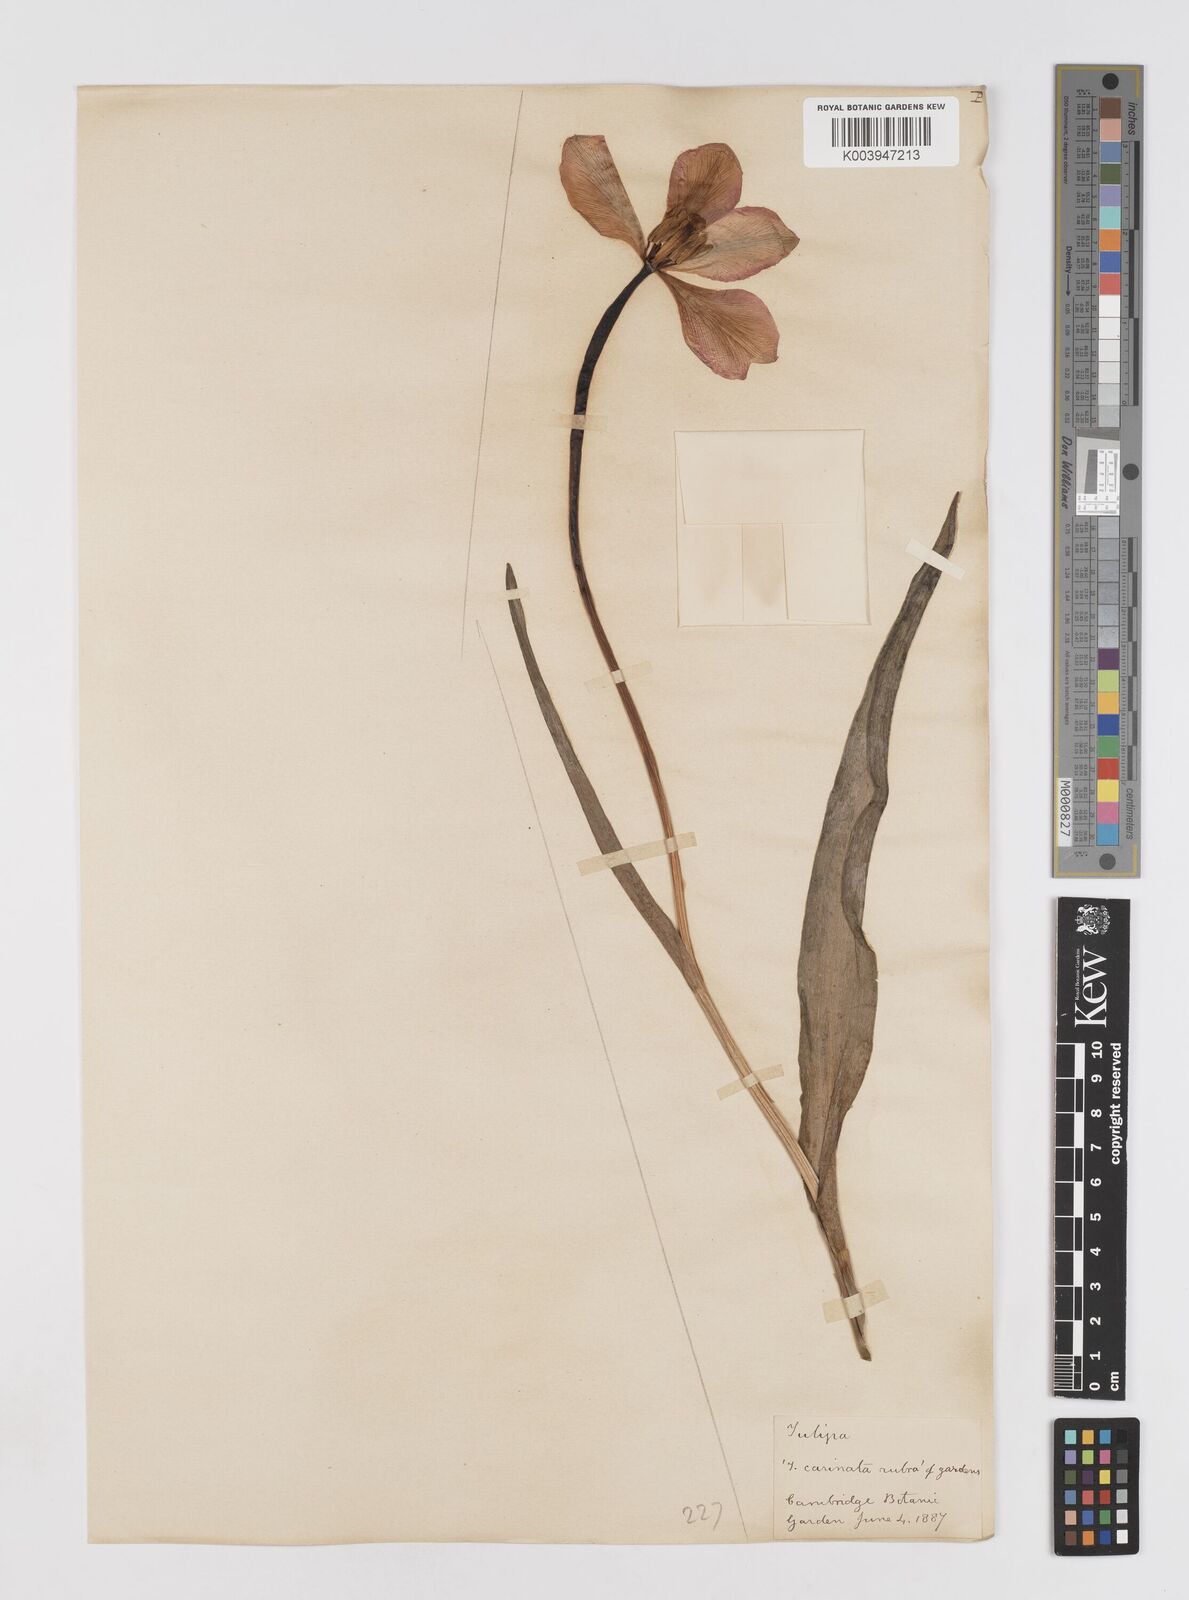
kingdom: Plantae
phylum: Tracheophyta
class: Liliopsida
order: Liliales
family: Liliaceae
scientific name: Liliaceae
